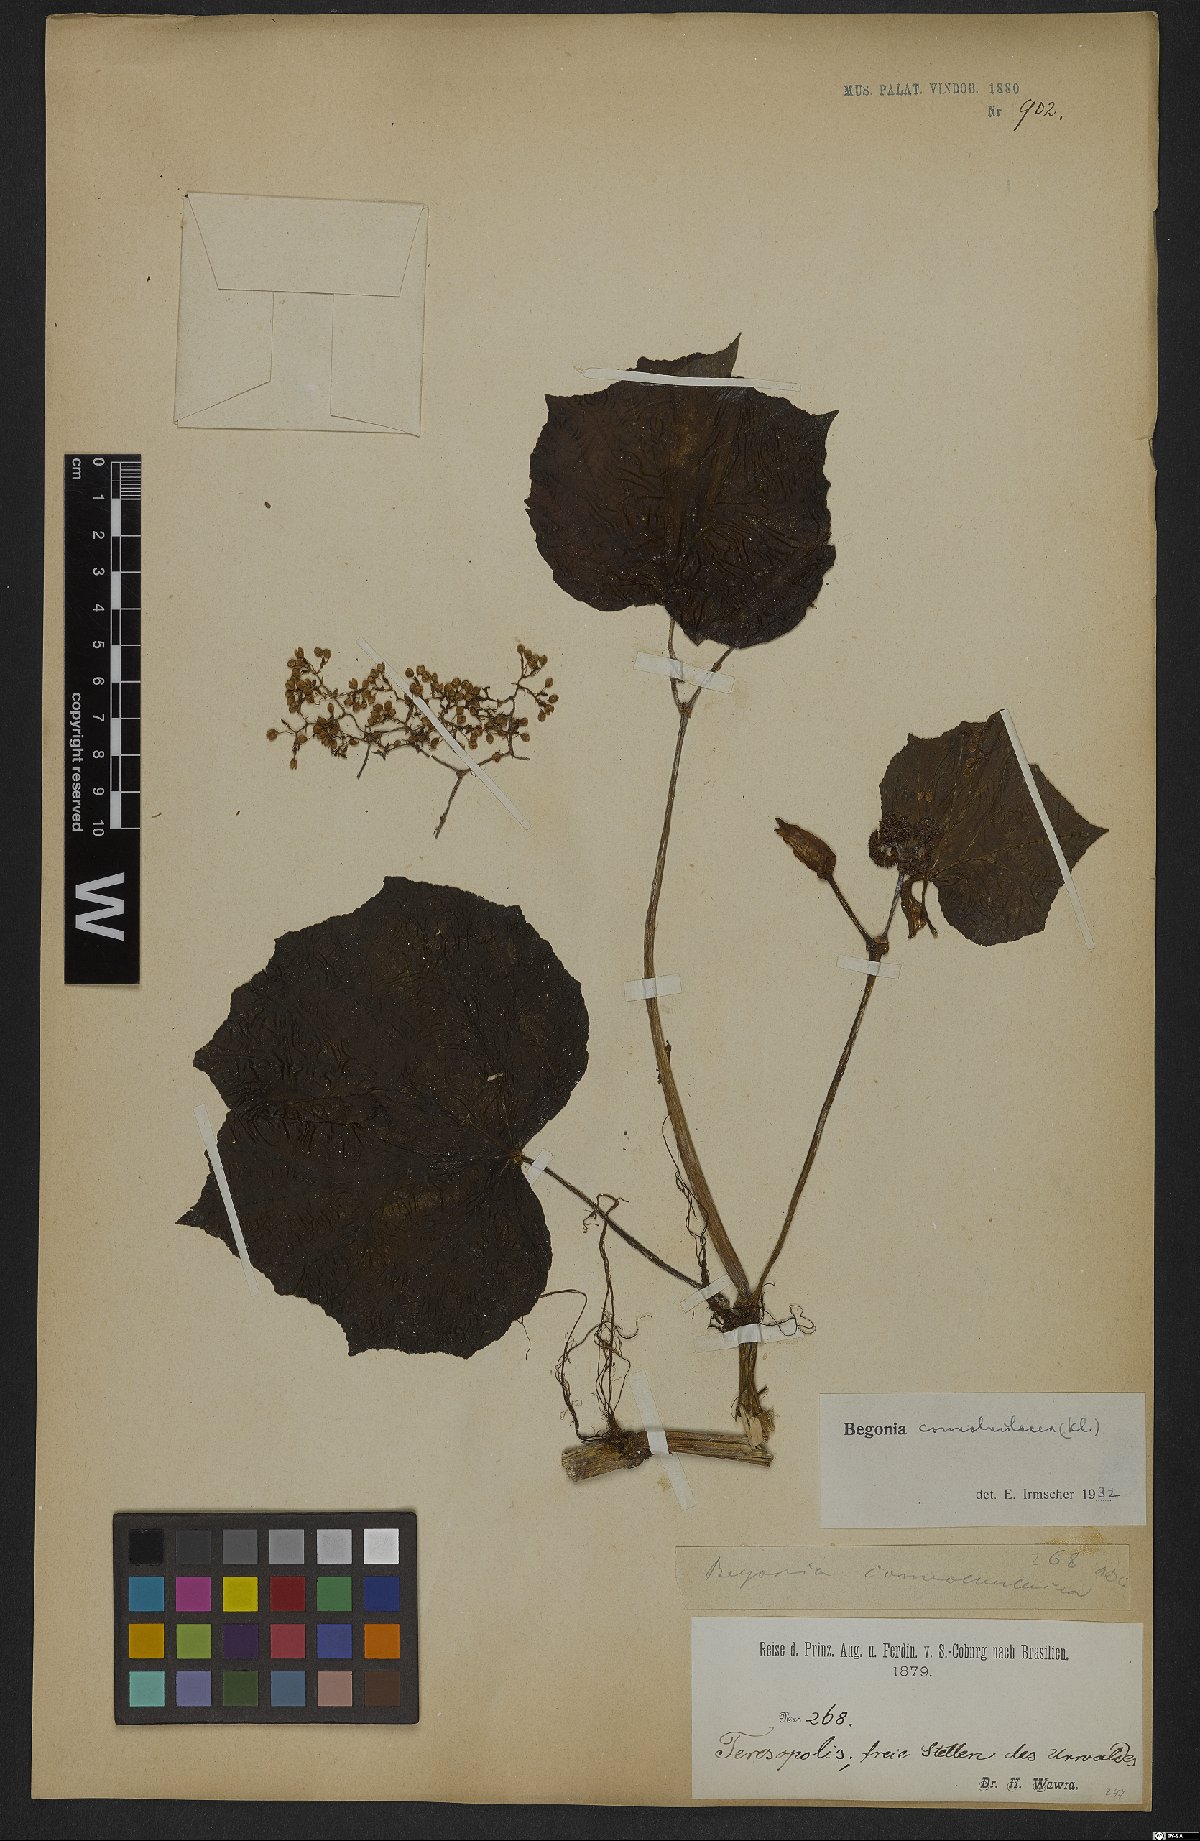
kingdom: Plantae
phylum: Tracheophyta
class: Magnoliopsida
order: Cucurbitales
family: Begoniaceae
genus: Begonia
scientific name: Begonia convolvulacea
